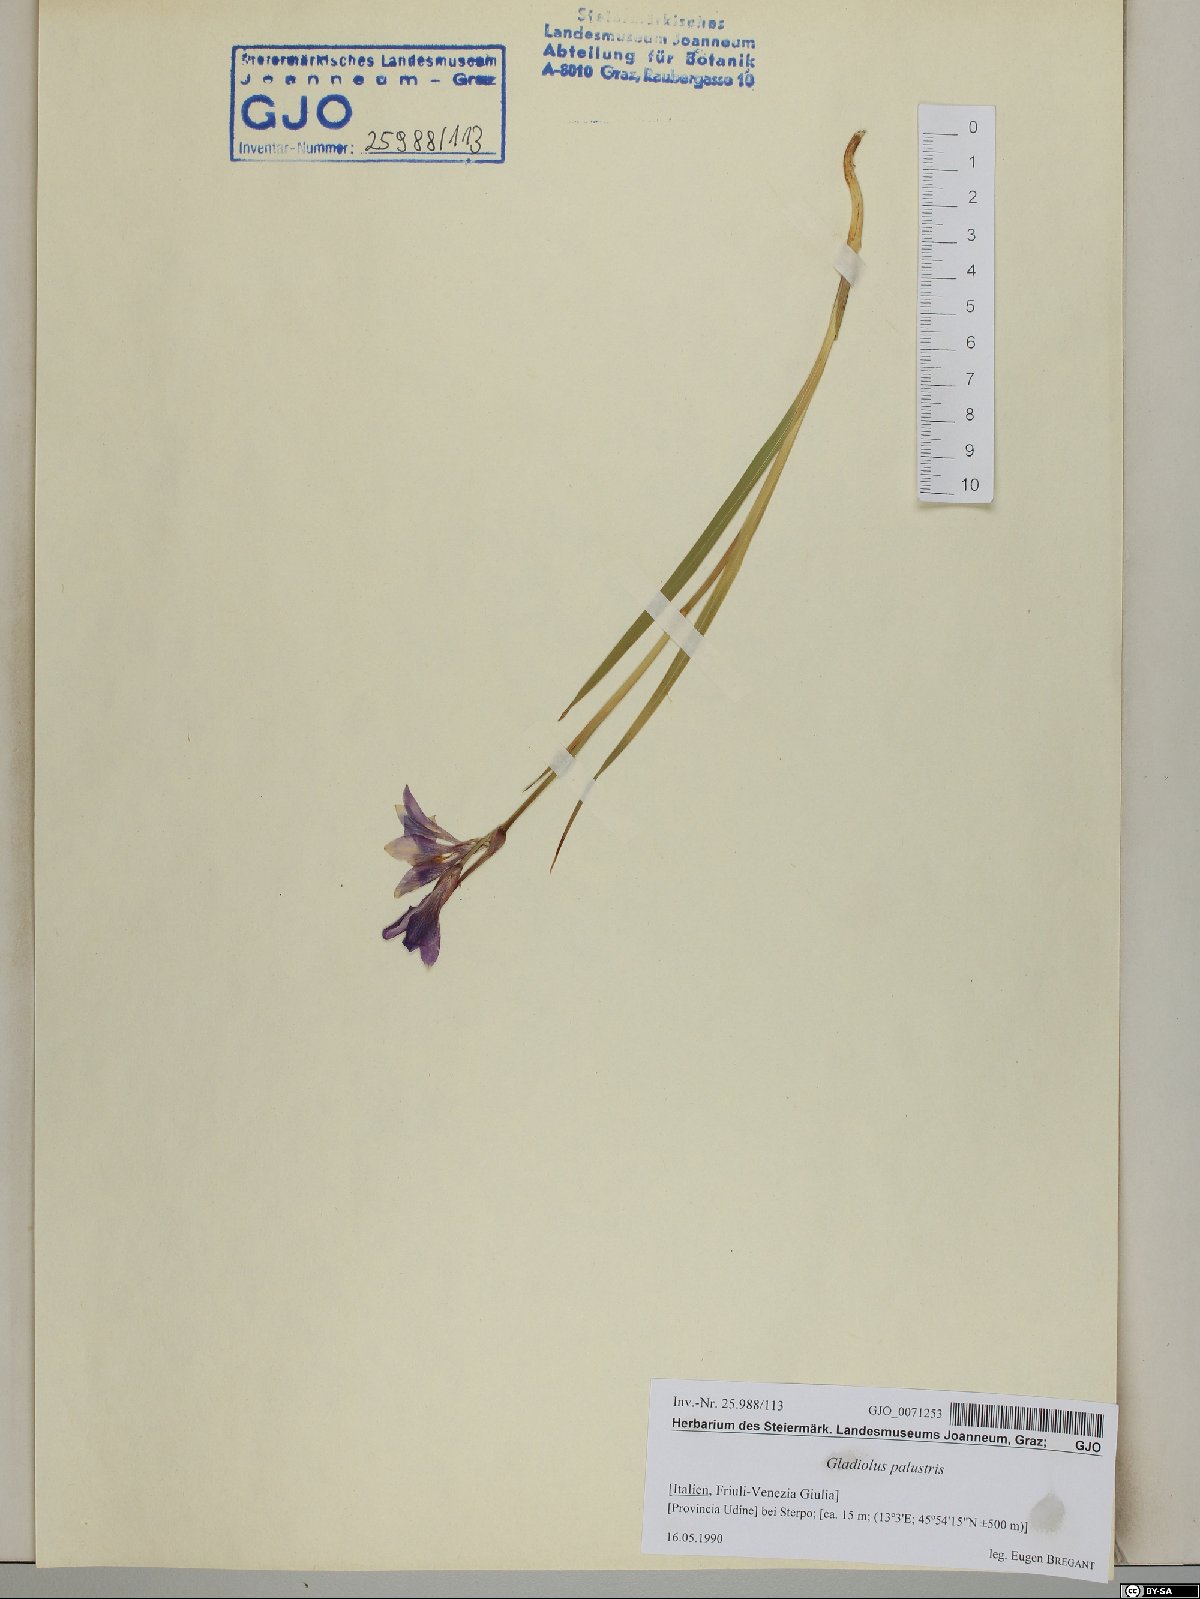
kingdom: Plantae
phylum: Tracheophyta
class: Liliopsida
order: Asparagales
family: Iridaceae
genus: Gladiolus
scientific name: Gladiolus palustris
